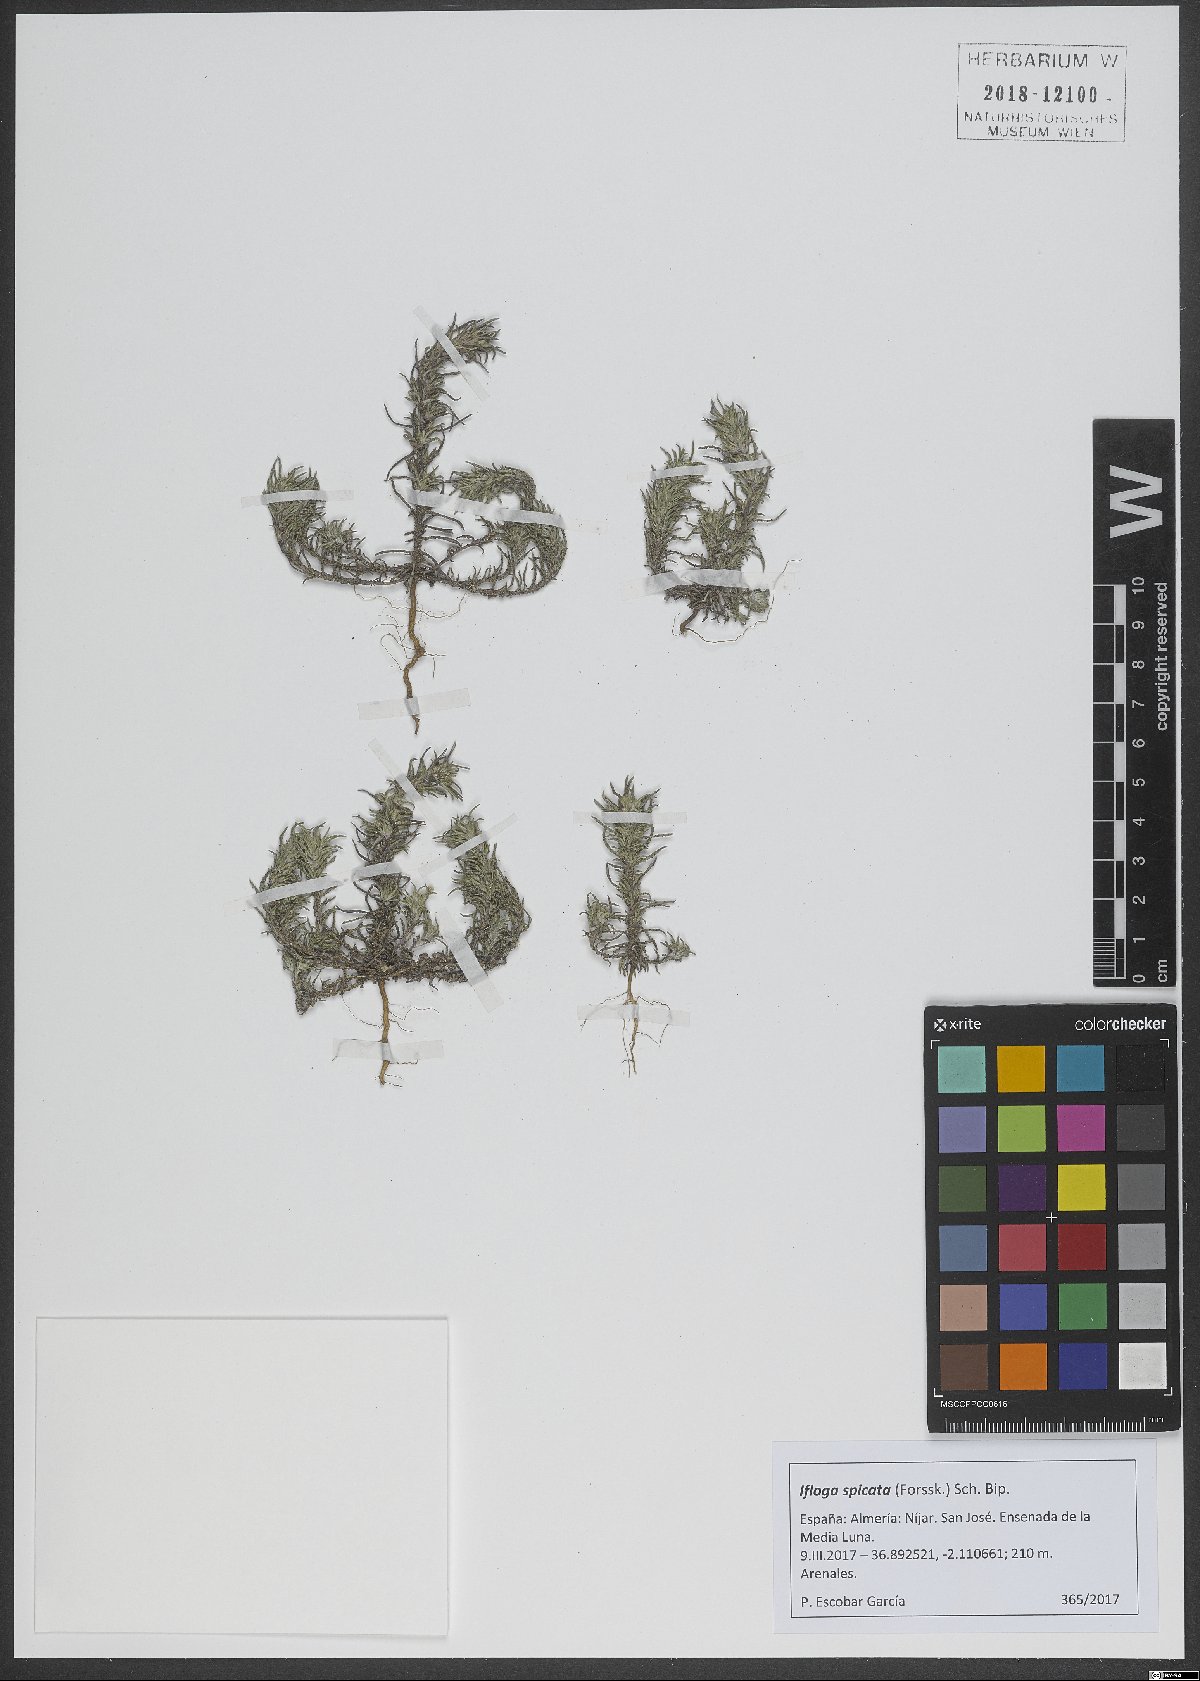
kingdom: Plantae
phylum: Tracheophyta
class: Magnoliopsida
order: Asterales
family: Asteraceae
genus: Ifloga
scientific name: Ifloga spicata
